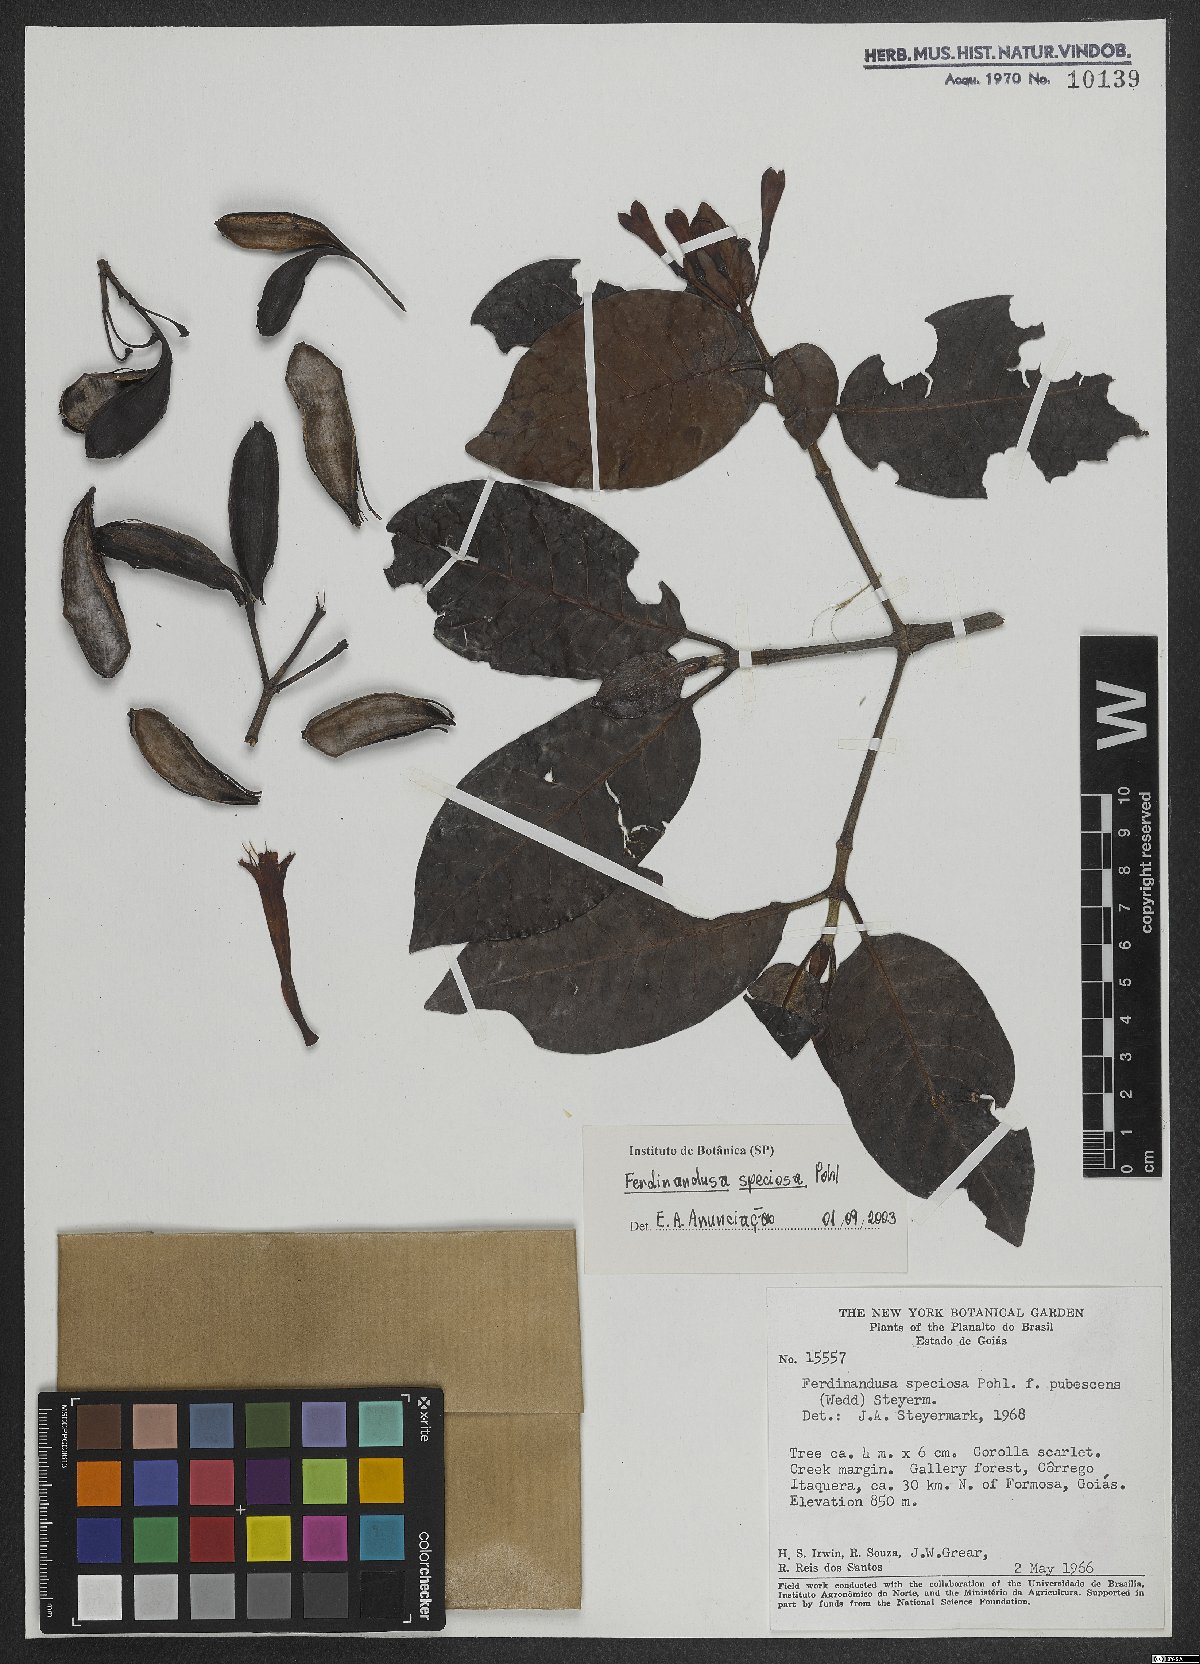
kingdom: Plantae
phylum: Tracheophyta
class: Magnoliopsida
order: Gentianales
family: Rubiaceae
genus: Ferdinandusa
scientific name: Ferdinandusa speciosa
